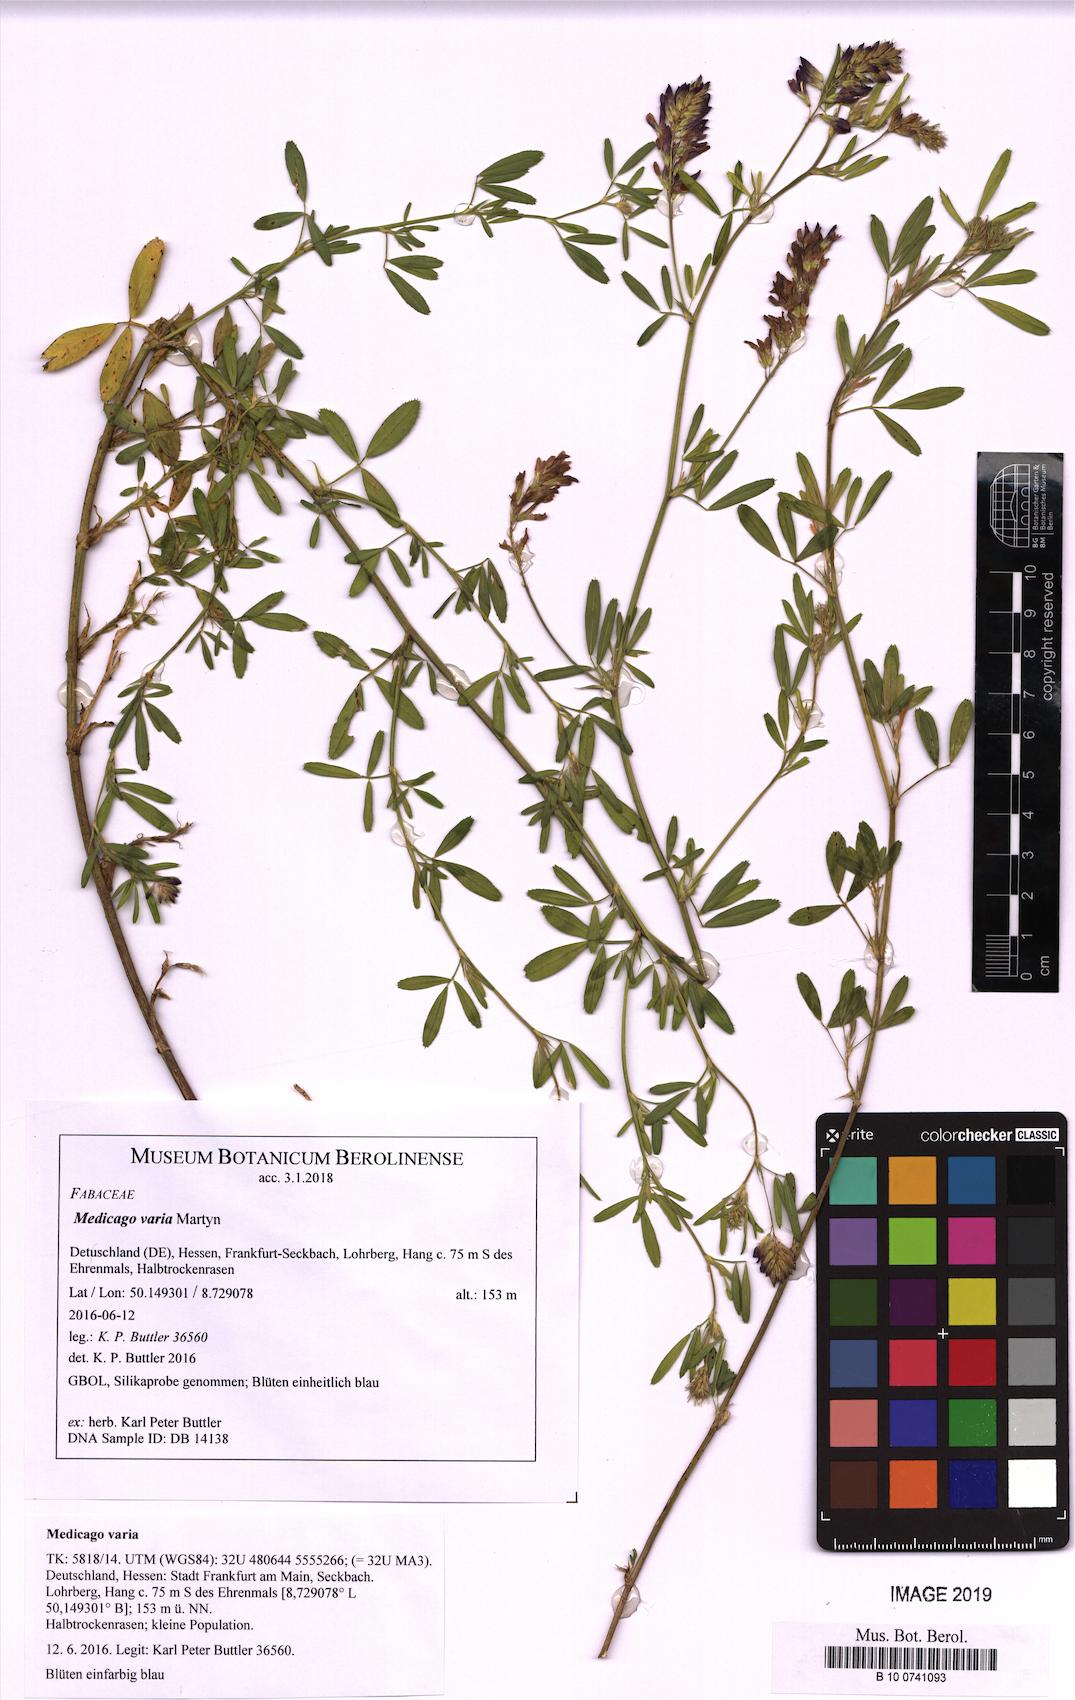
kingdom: Plantae
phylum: Tracheophyta
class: Magnoliopsida
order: Fabales
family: Fabaceae
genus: Medicago
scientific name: Medicago varia
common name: Sand lucerne
